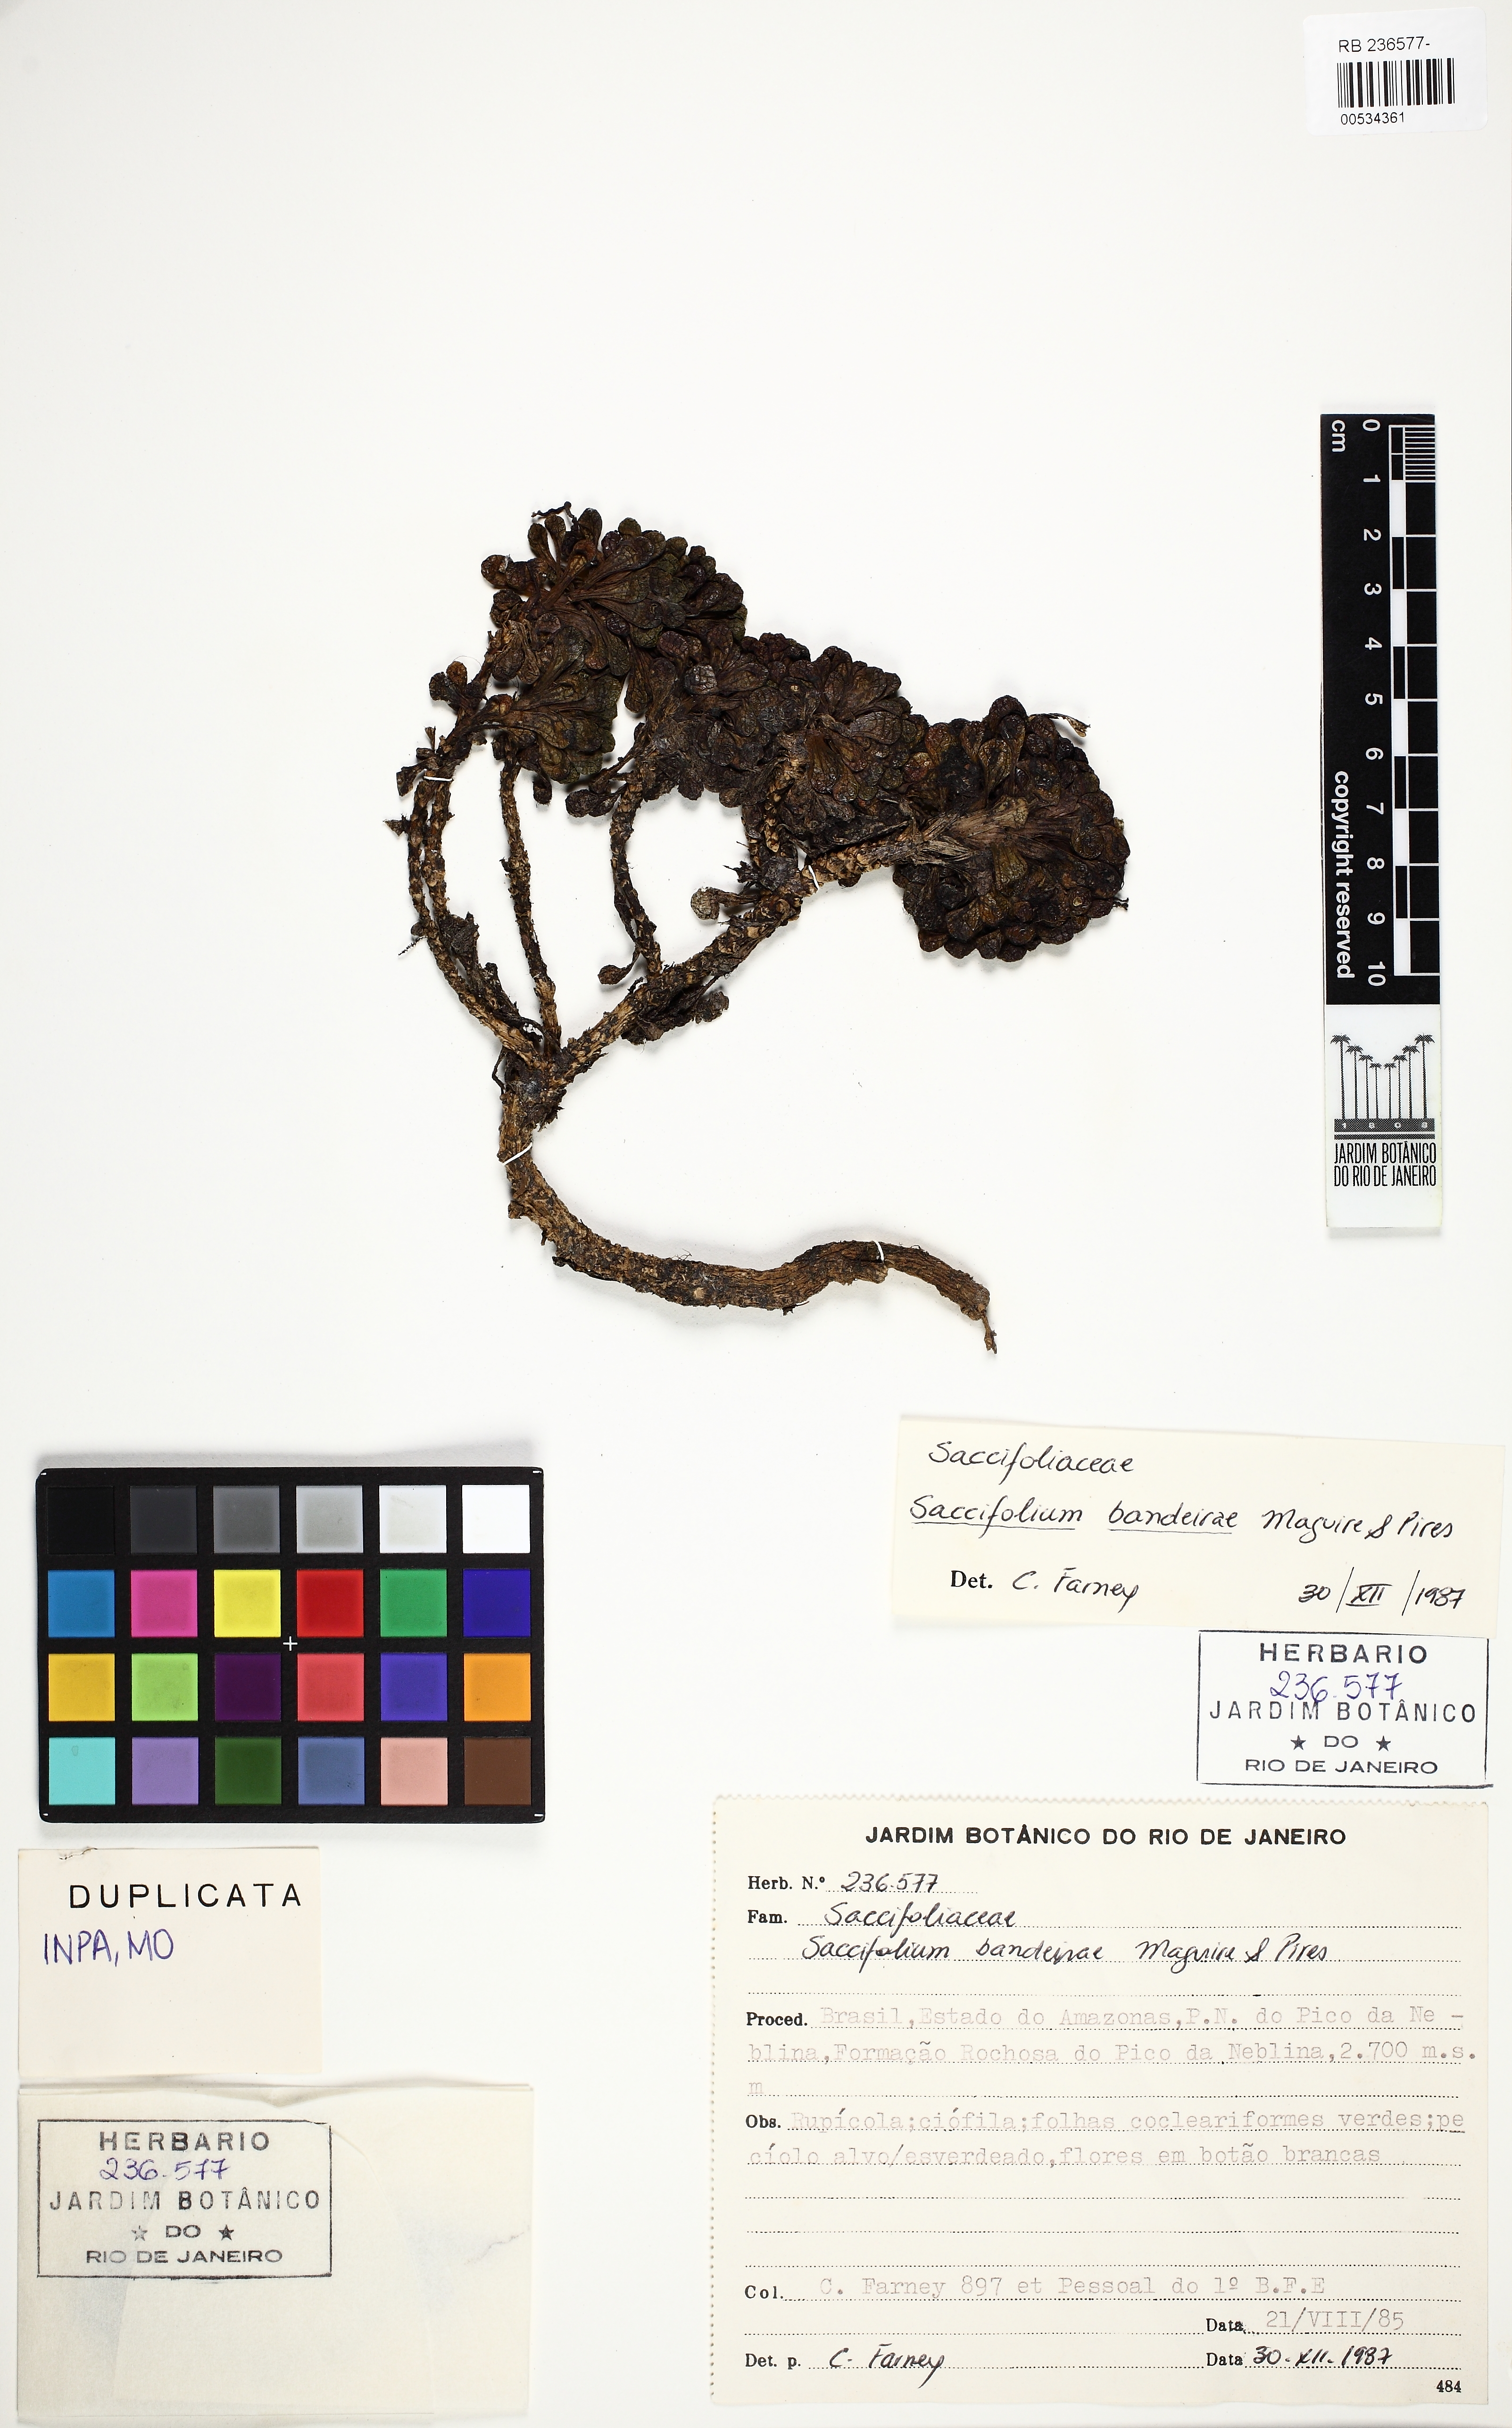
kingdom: Plantae
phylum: Tracheophyta
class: Magnoliopsida
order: Gentianales
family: Gentianaceae
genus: Saccifolium
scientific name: Saccifolium bandeirae
